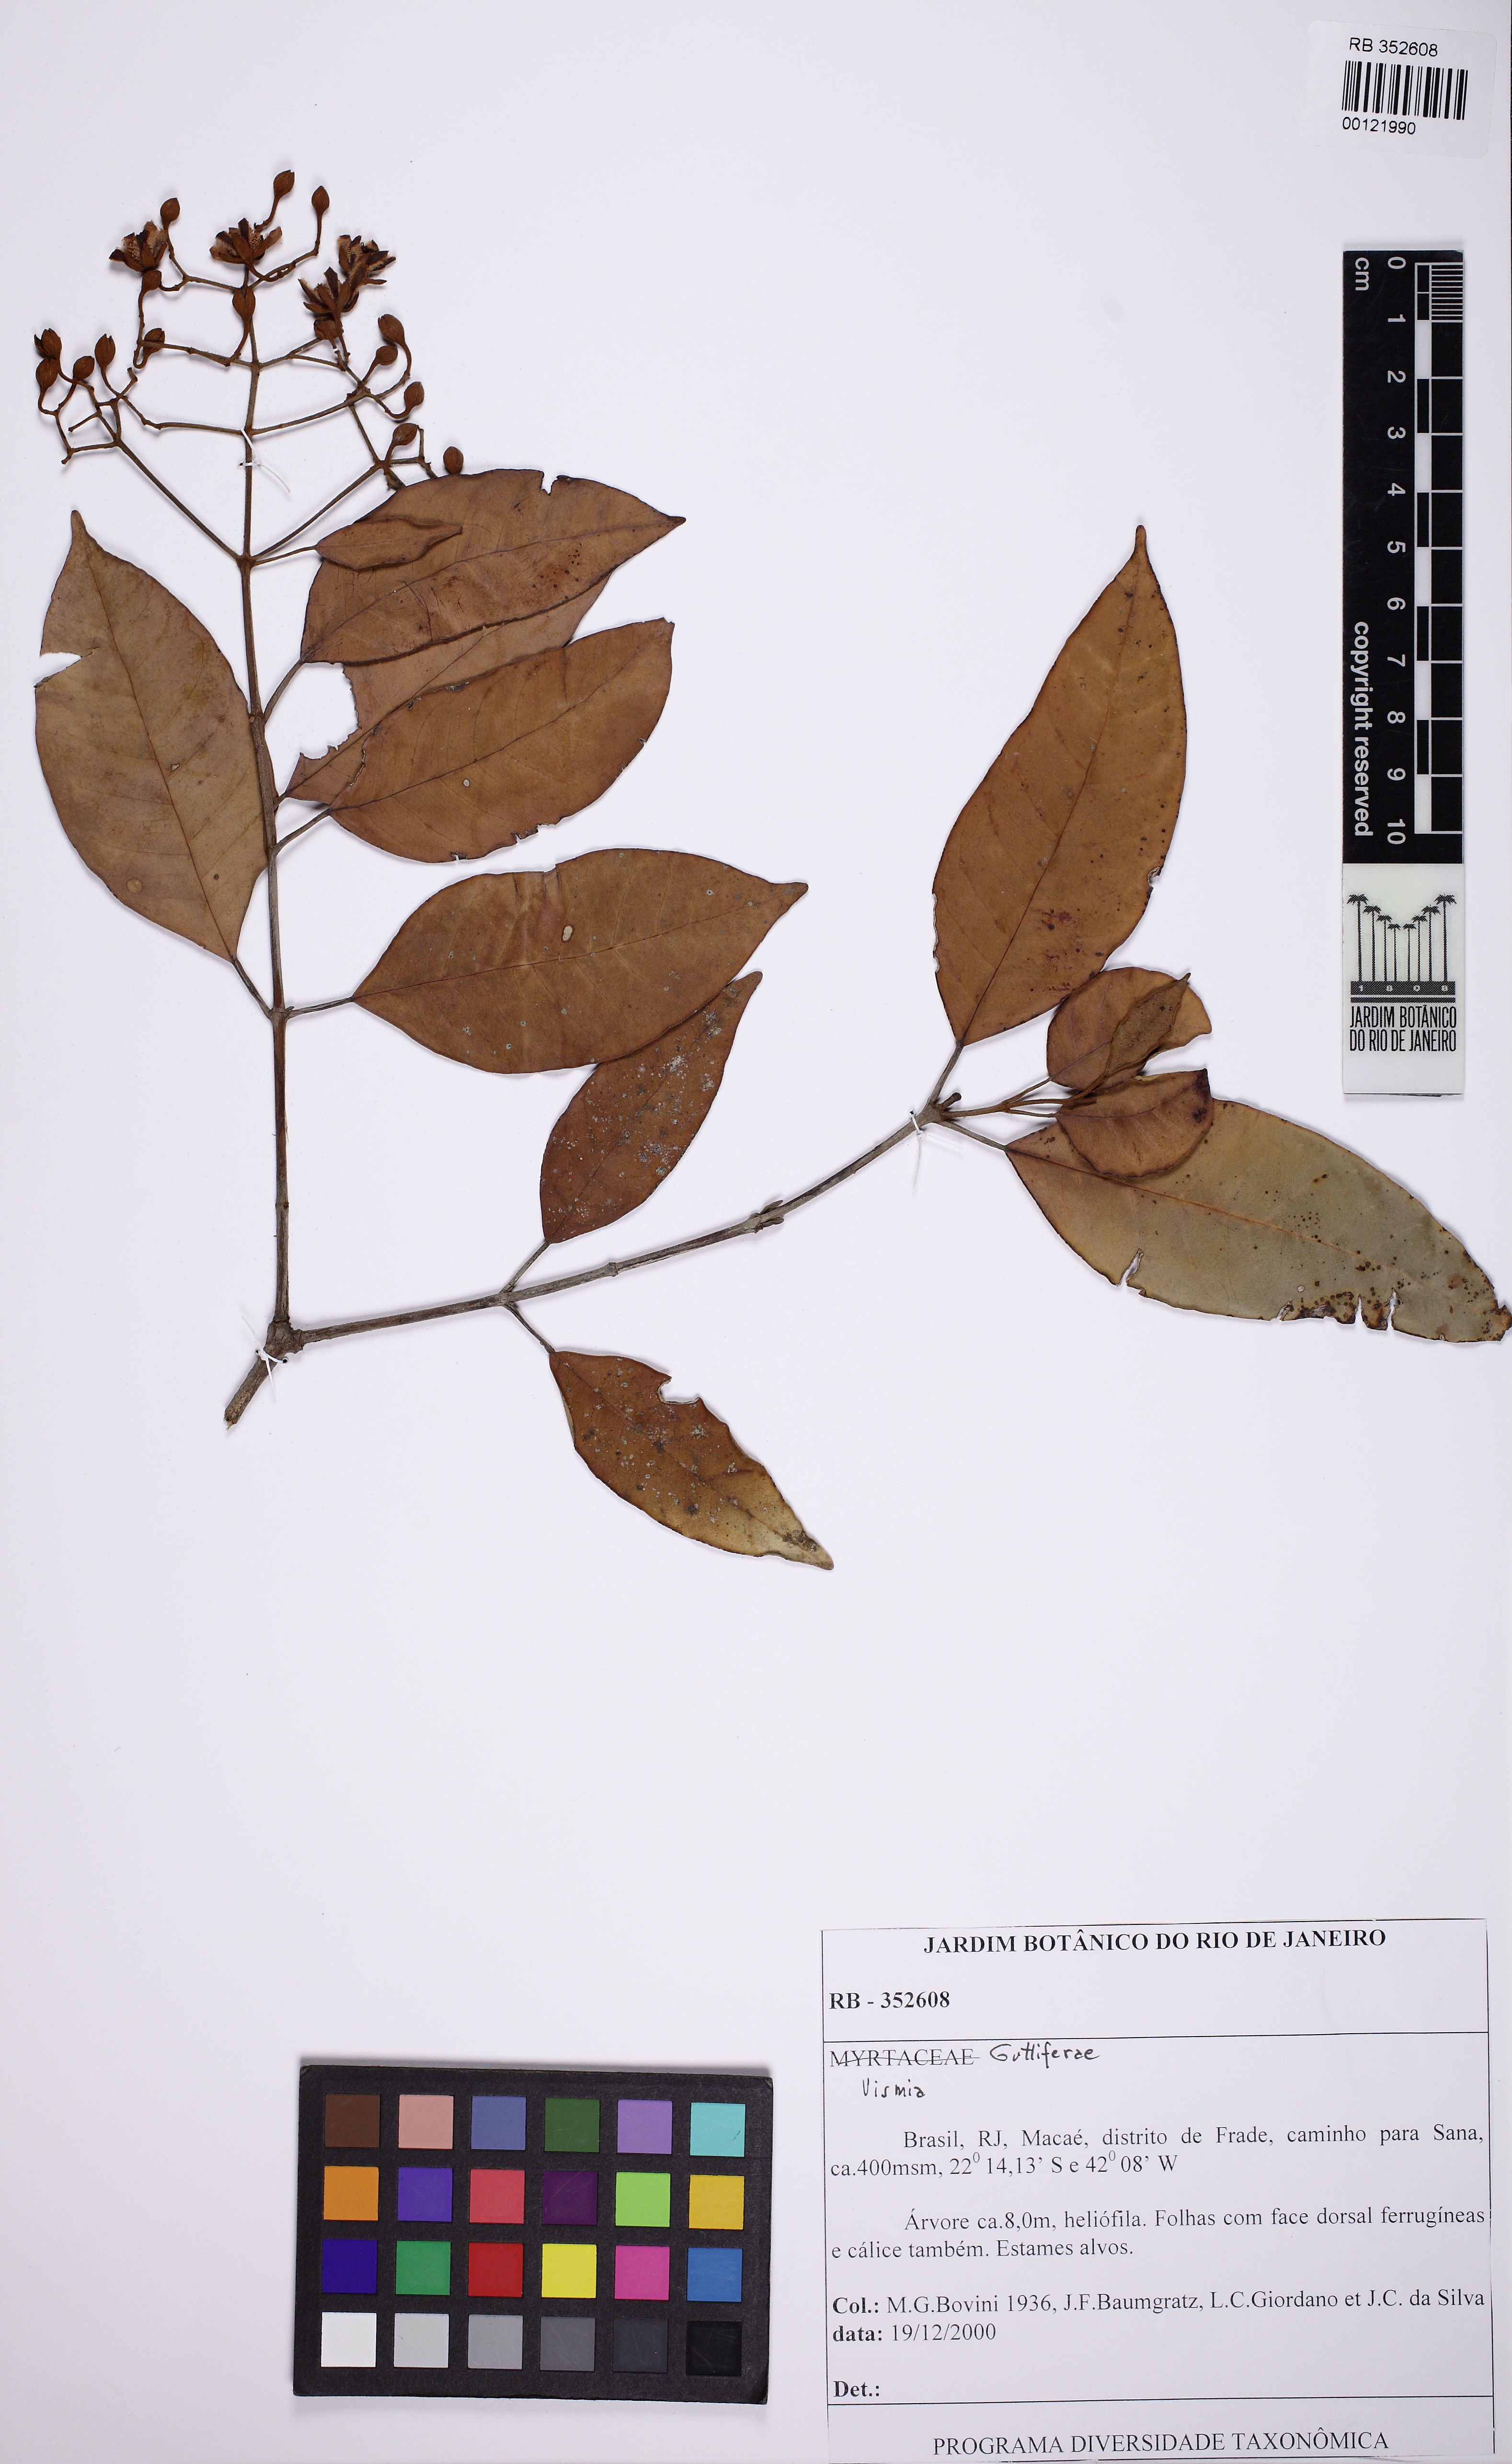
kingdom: Plantae
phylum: Tracheophyta
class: Magnoliopsida
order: Malpighiales
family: Hypericaceae
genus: Vismia
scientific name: Vismia pentagyna
